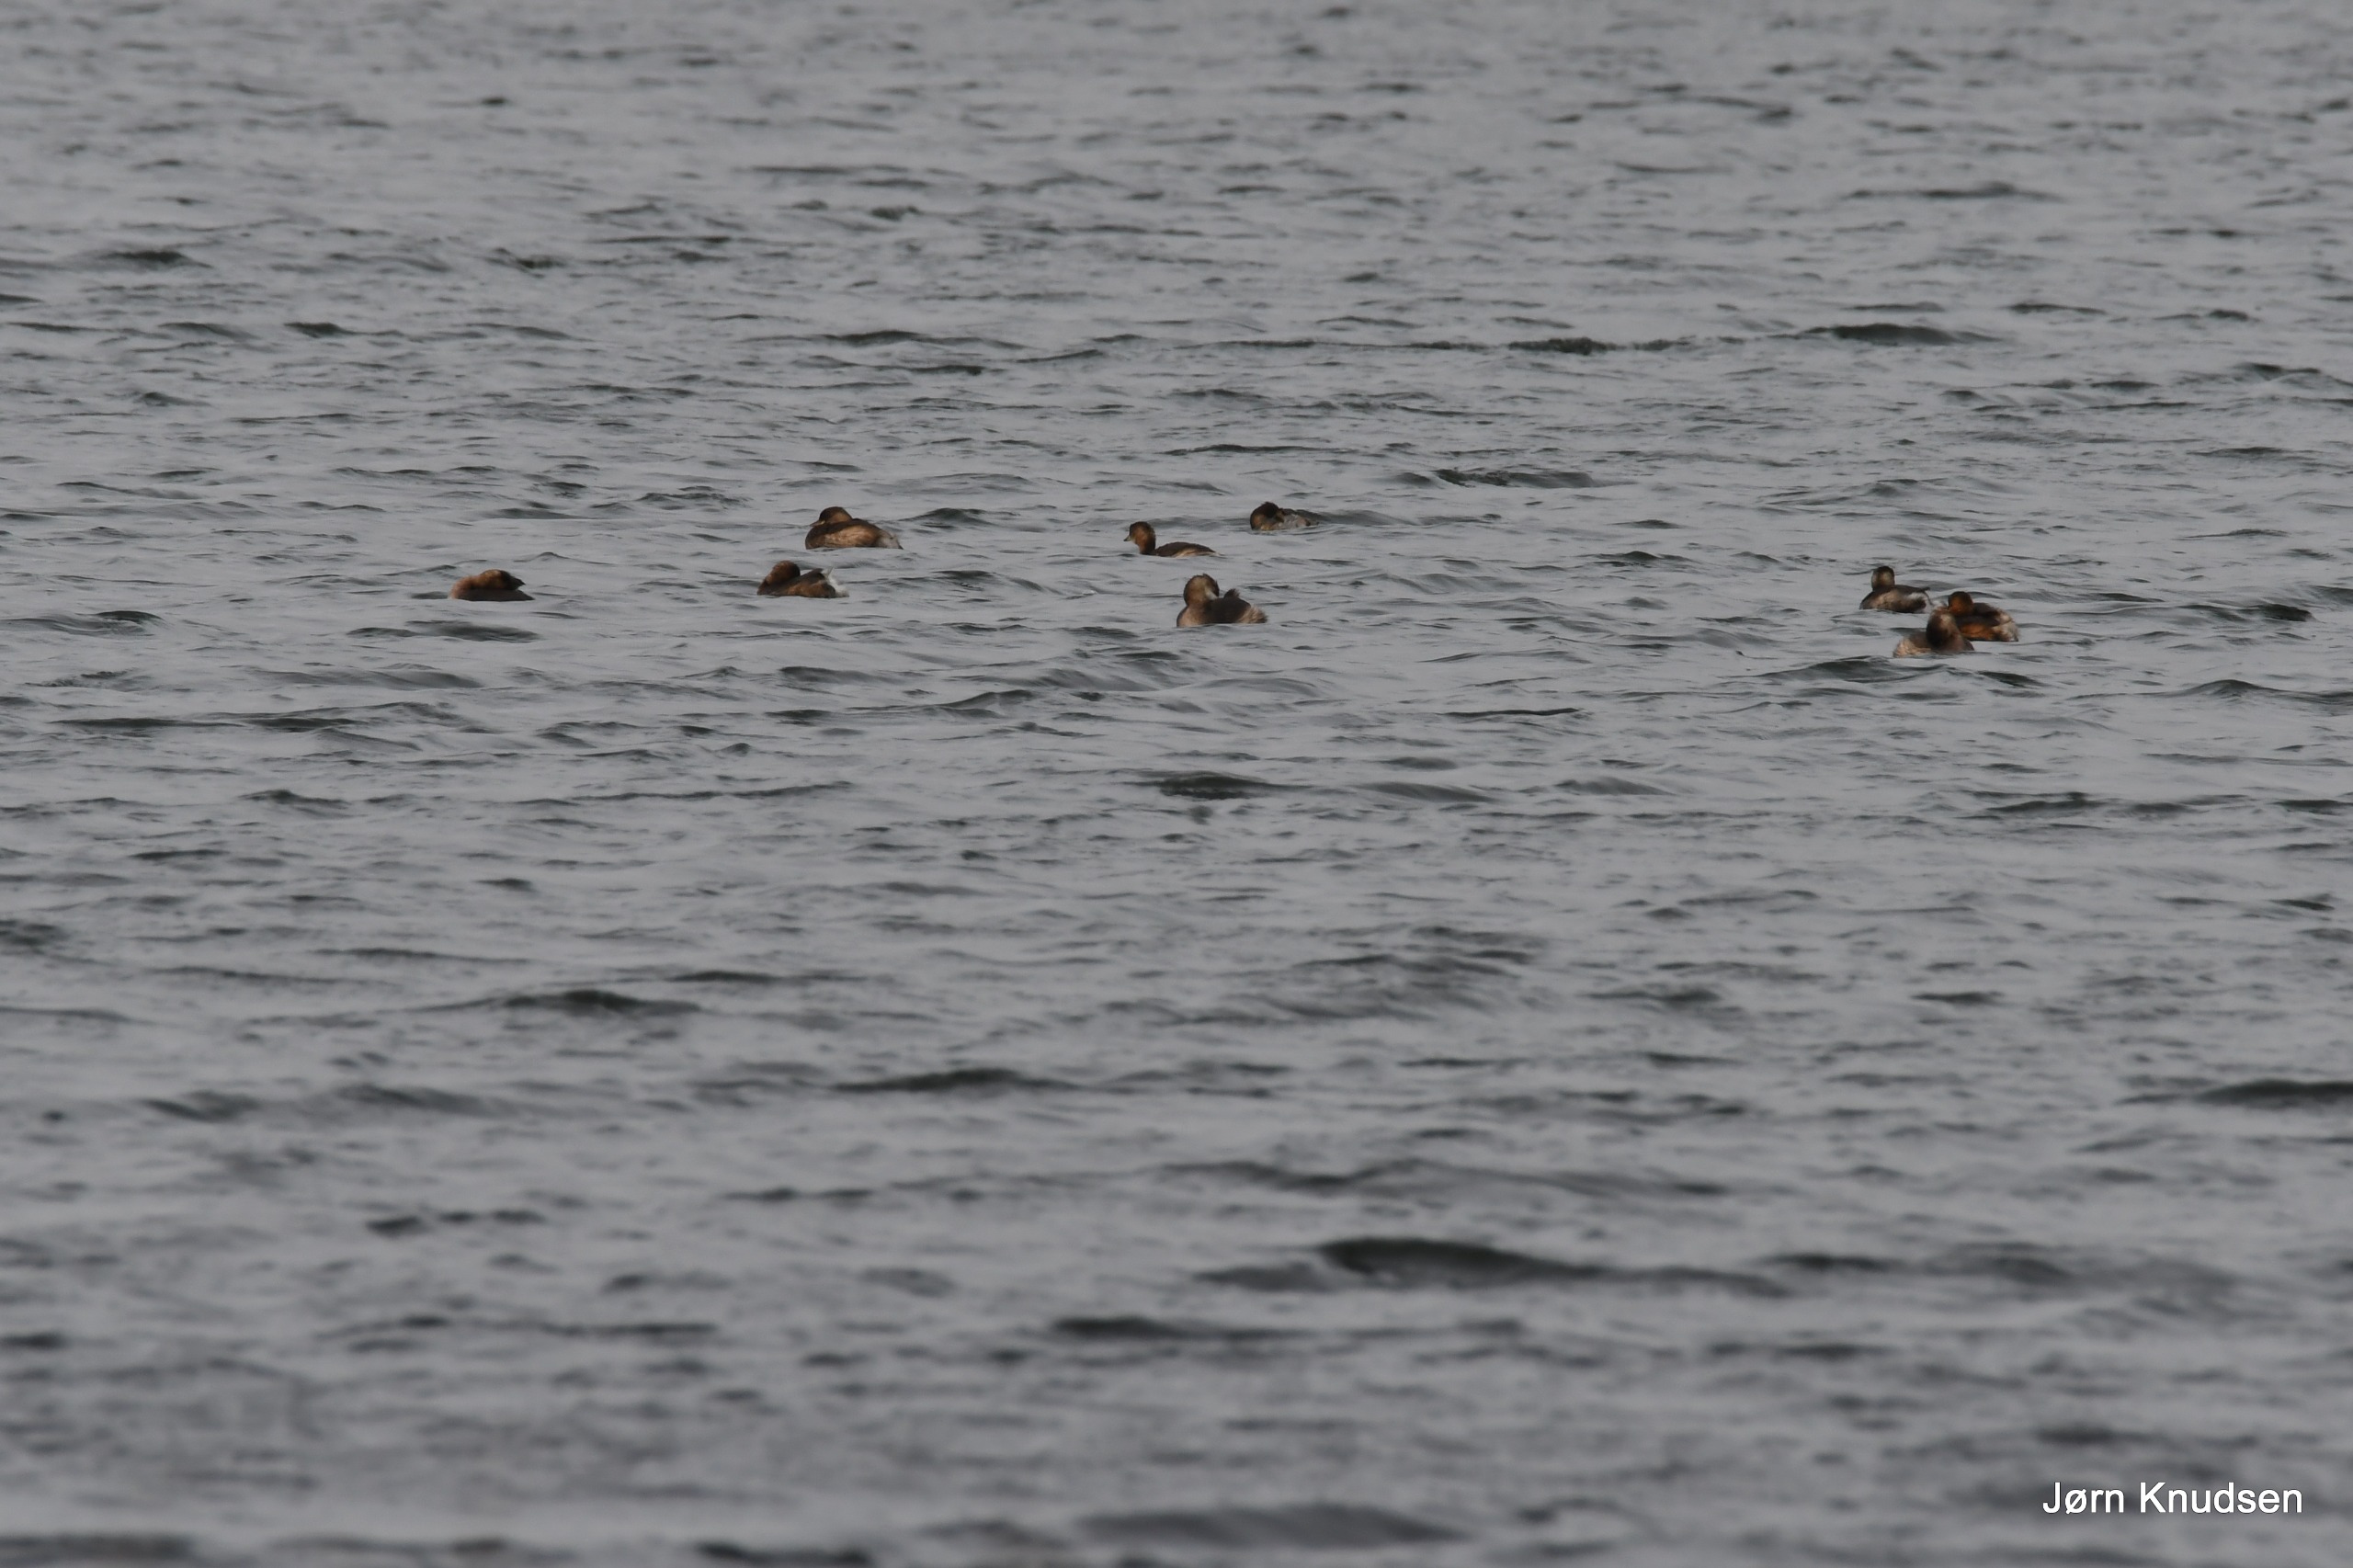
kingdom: Animalia
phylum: Chordata
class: Aves
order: Podicipediformes
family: Podicipedidae
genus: Tachybaptus
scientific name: Tachybaptus ruficollis
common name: Lille lappedykker
